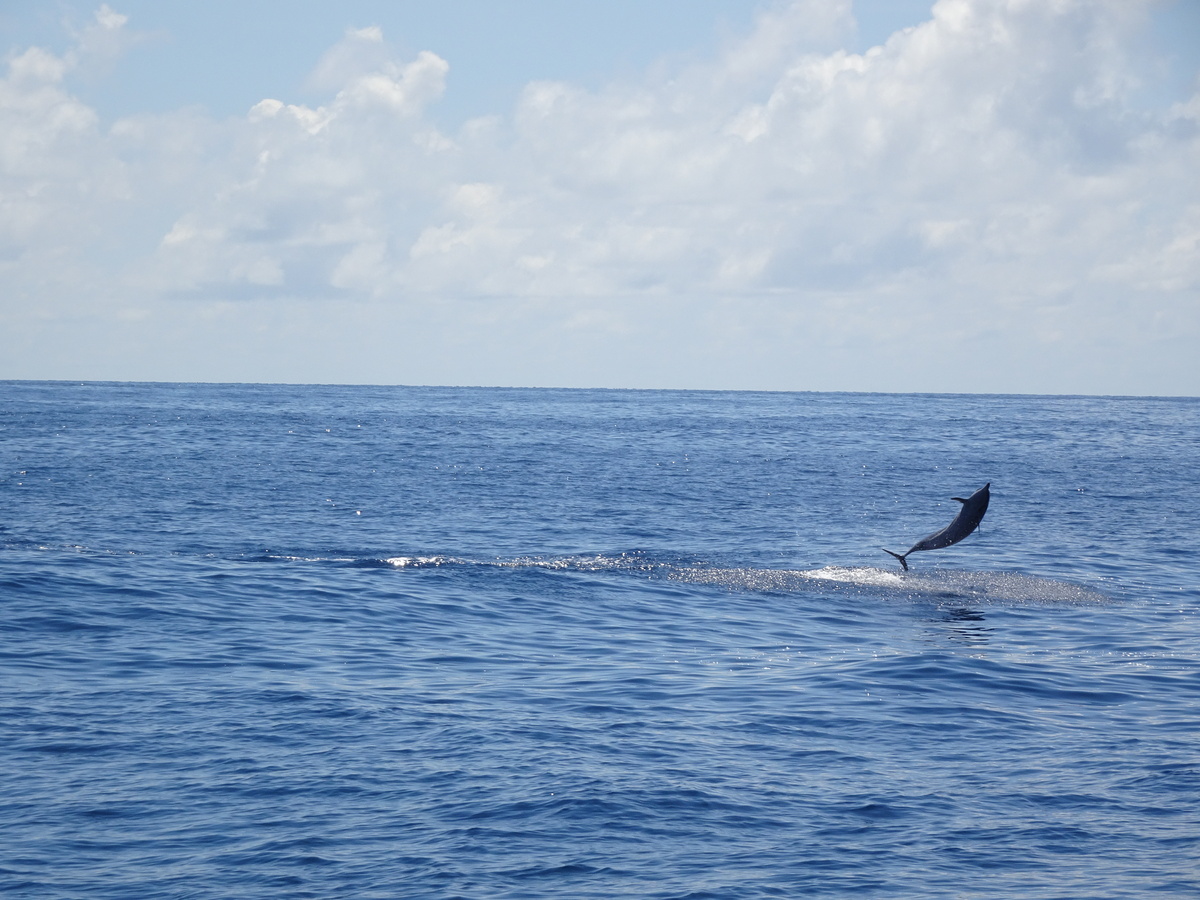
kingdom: Animalia
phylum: Chordata
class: Mammalia
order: Cetacea
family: Delphinidae
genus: Stenella
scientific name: Stenella longirostris
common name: Spinner Dolphin
